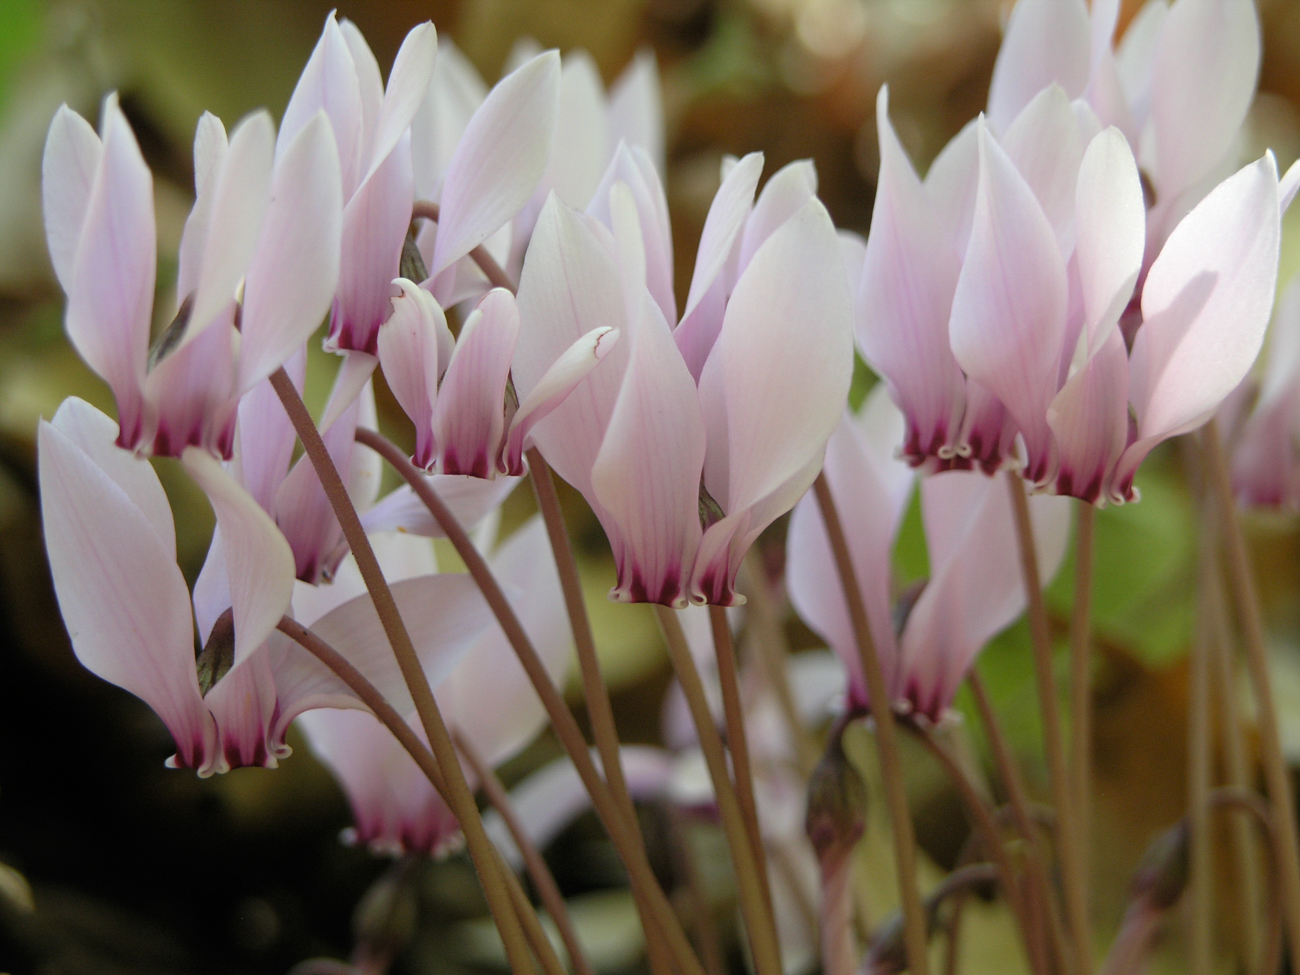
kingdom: Plantae
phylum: Tracheophyta
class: Magnoliopsida
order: Ericales
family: Primulaceae
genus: Cyclamen
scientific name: Cyclamen hederifolium
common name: Sowbread
